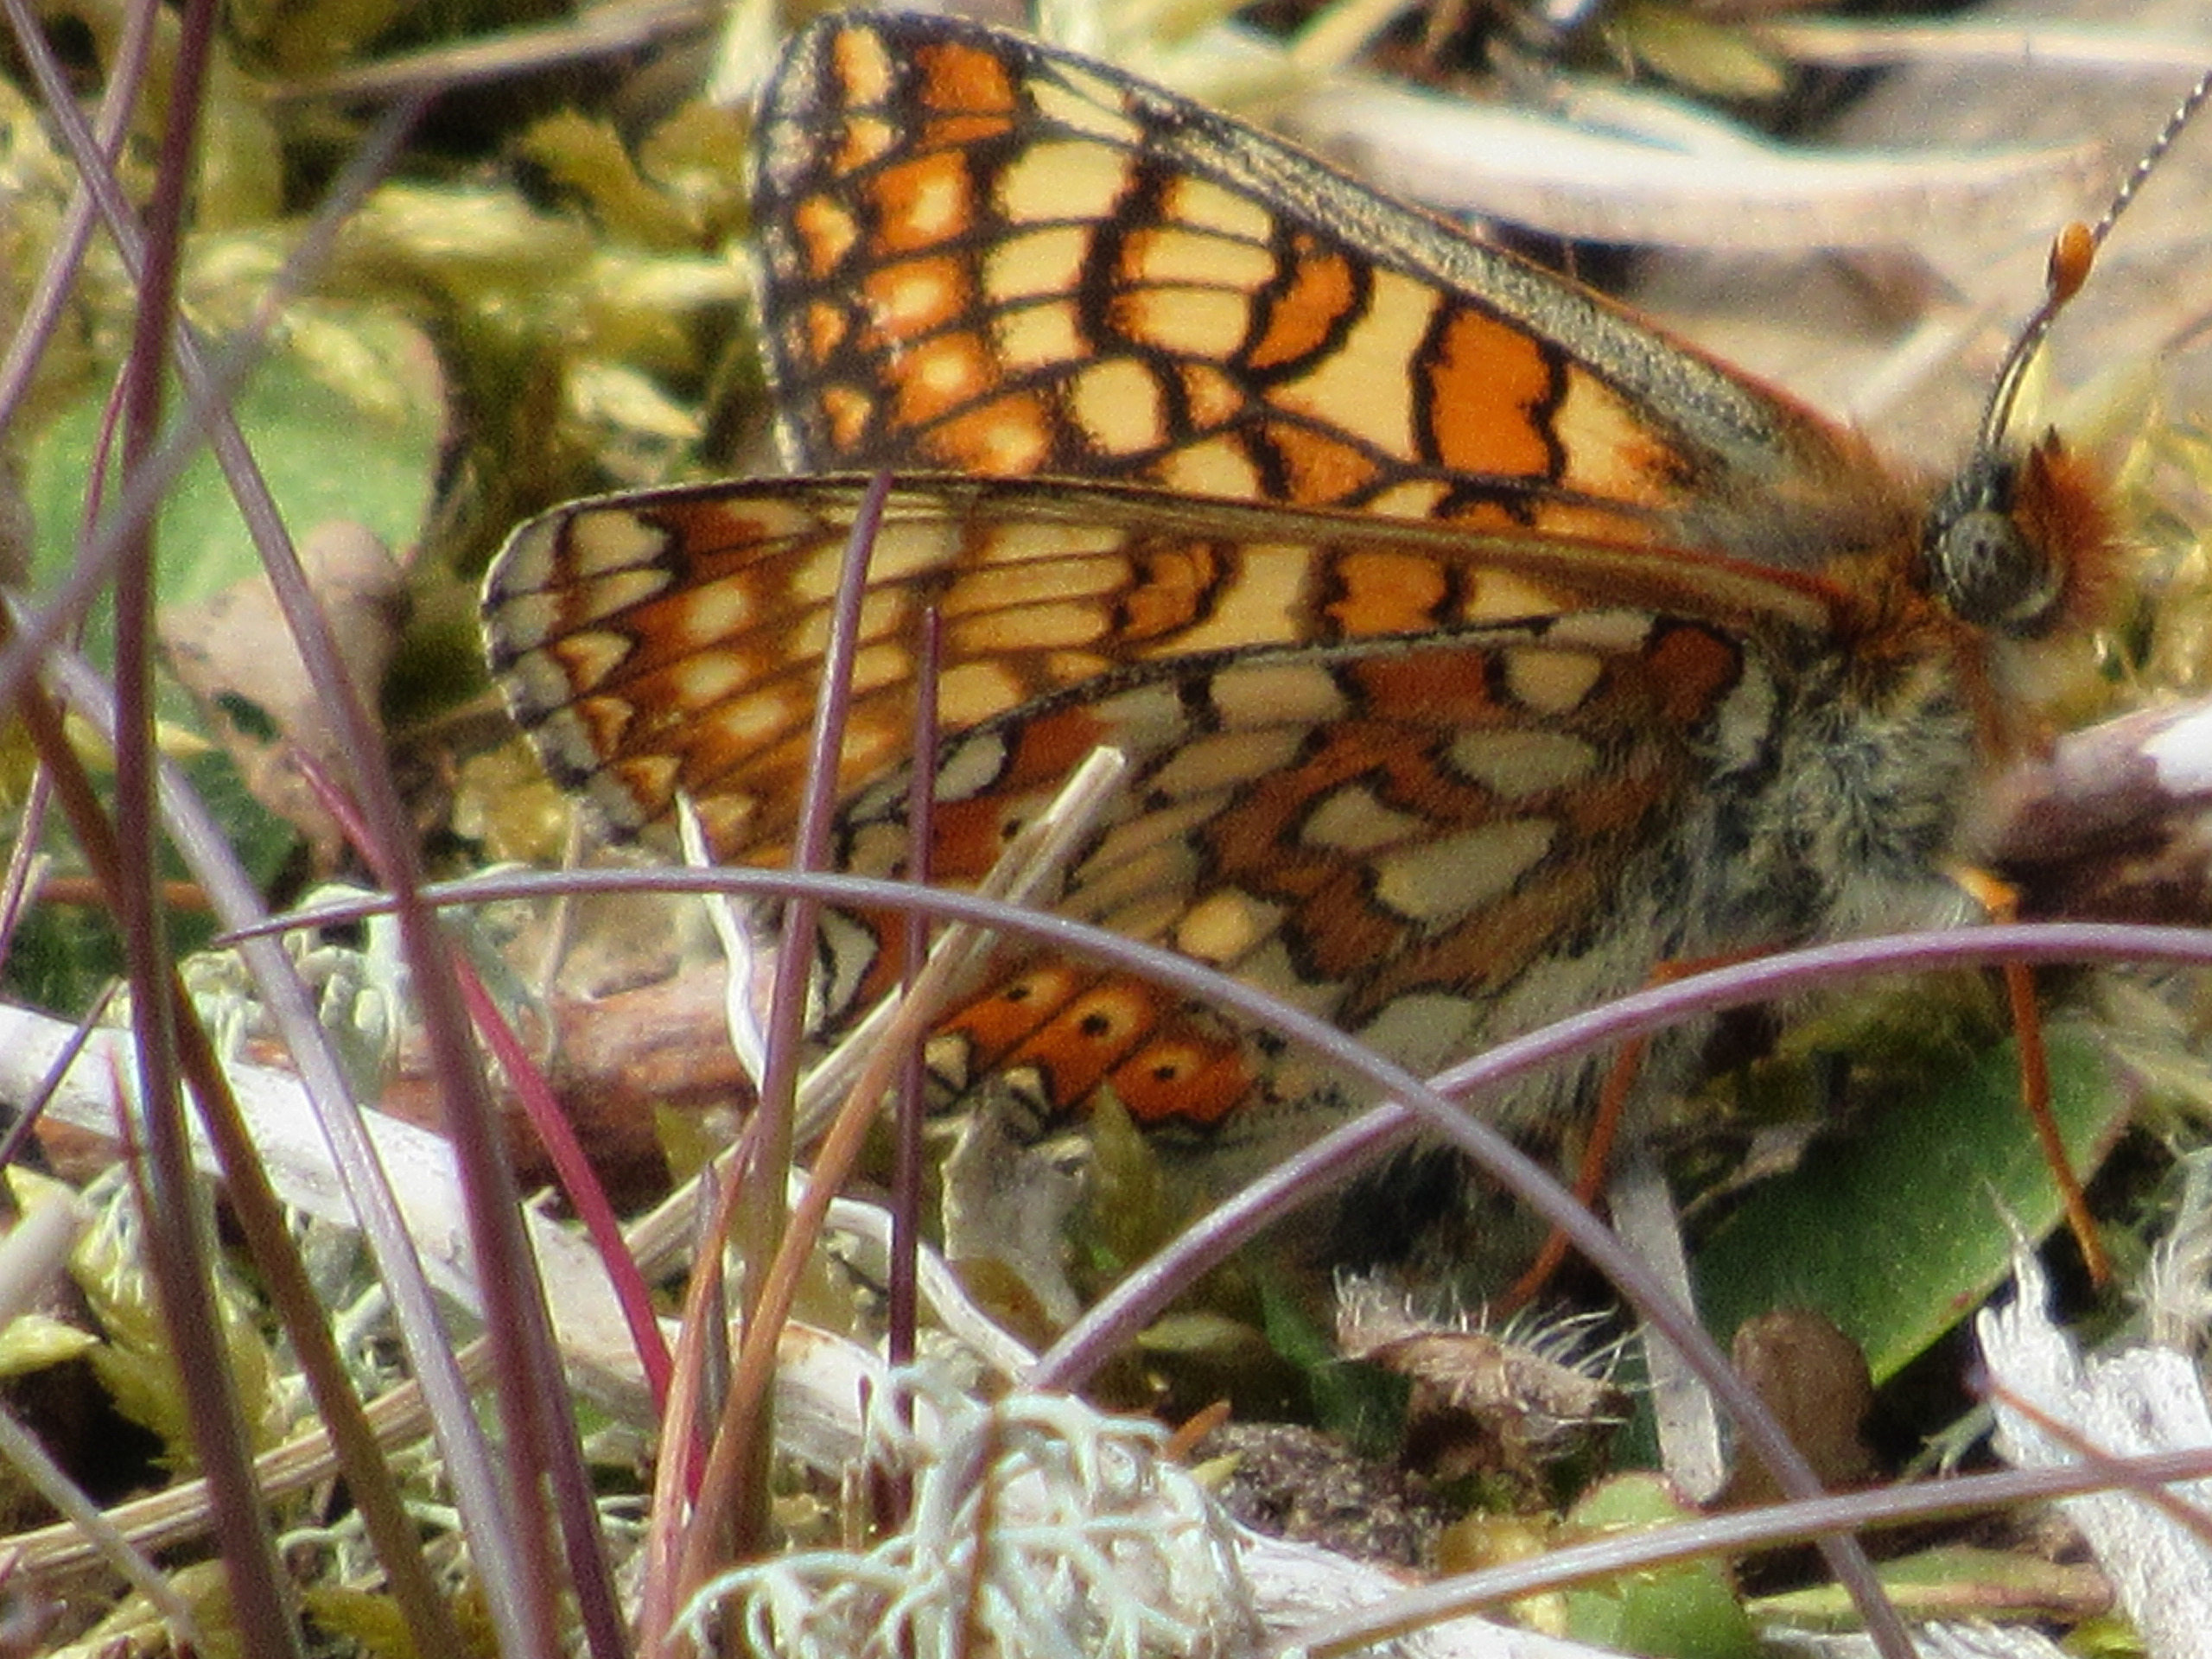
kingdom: Animalia
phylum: Arthropoda
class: Insecta
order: Lepidoptera
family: Nymphalidae
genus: Euphydryas
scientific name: Euphydryas aurinia
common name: Hedepletvinge
